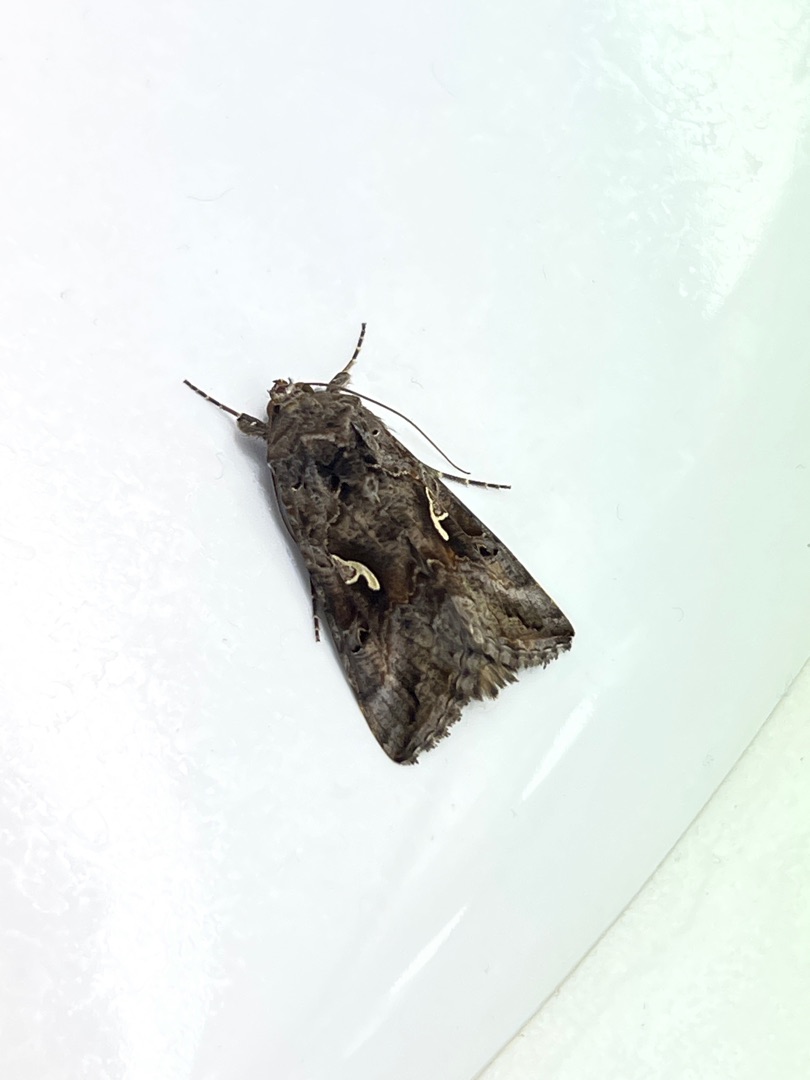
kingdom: Animalia
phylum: Arthropoda
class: Insecta
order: Lepidoptera
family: Noctuidae
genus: Autographa
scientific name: Autographa gamma
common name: Gammaugle
